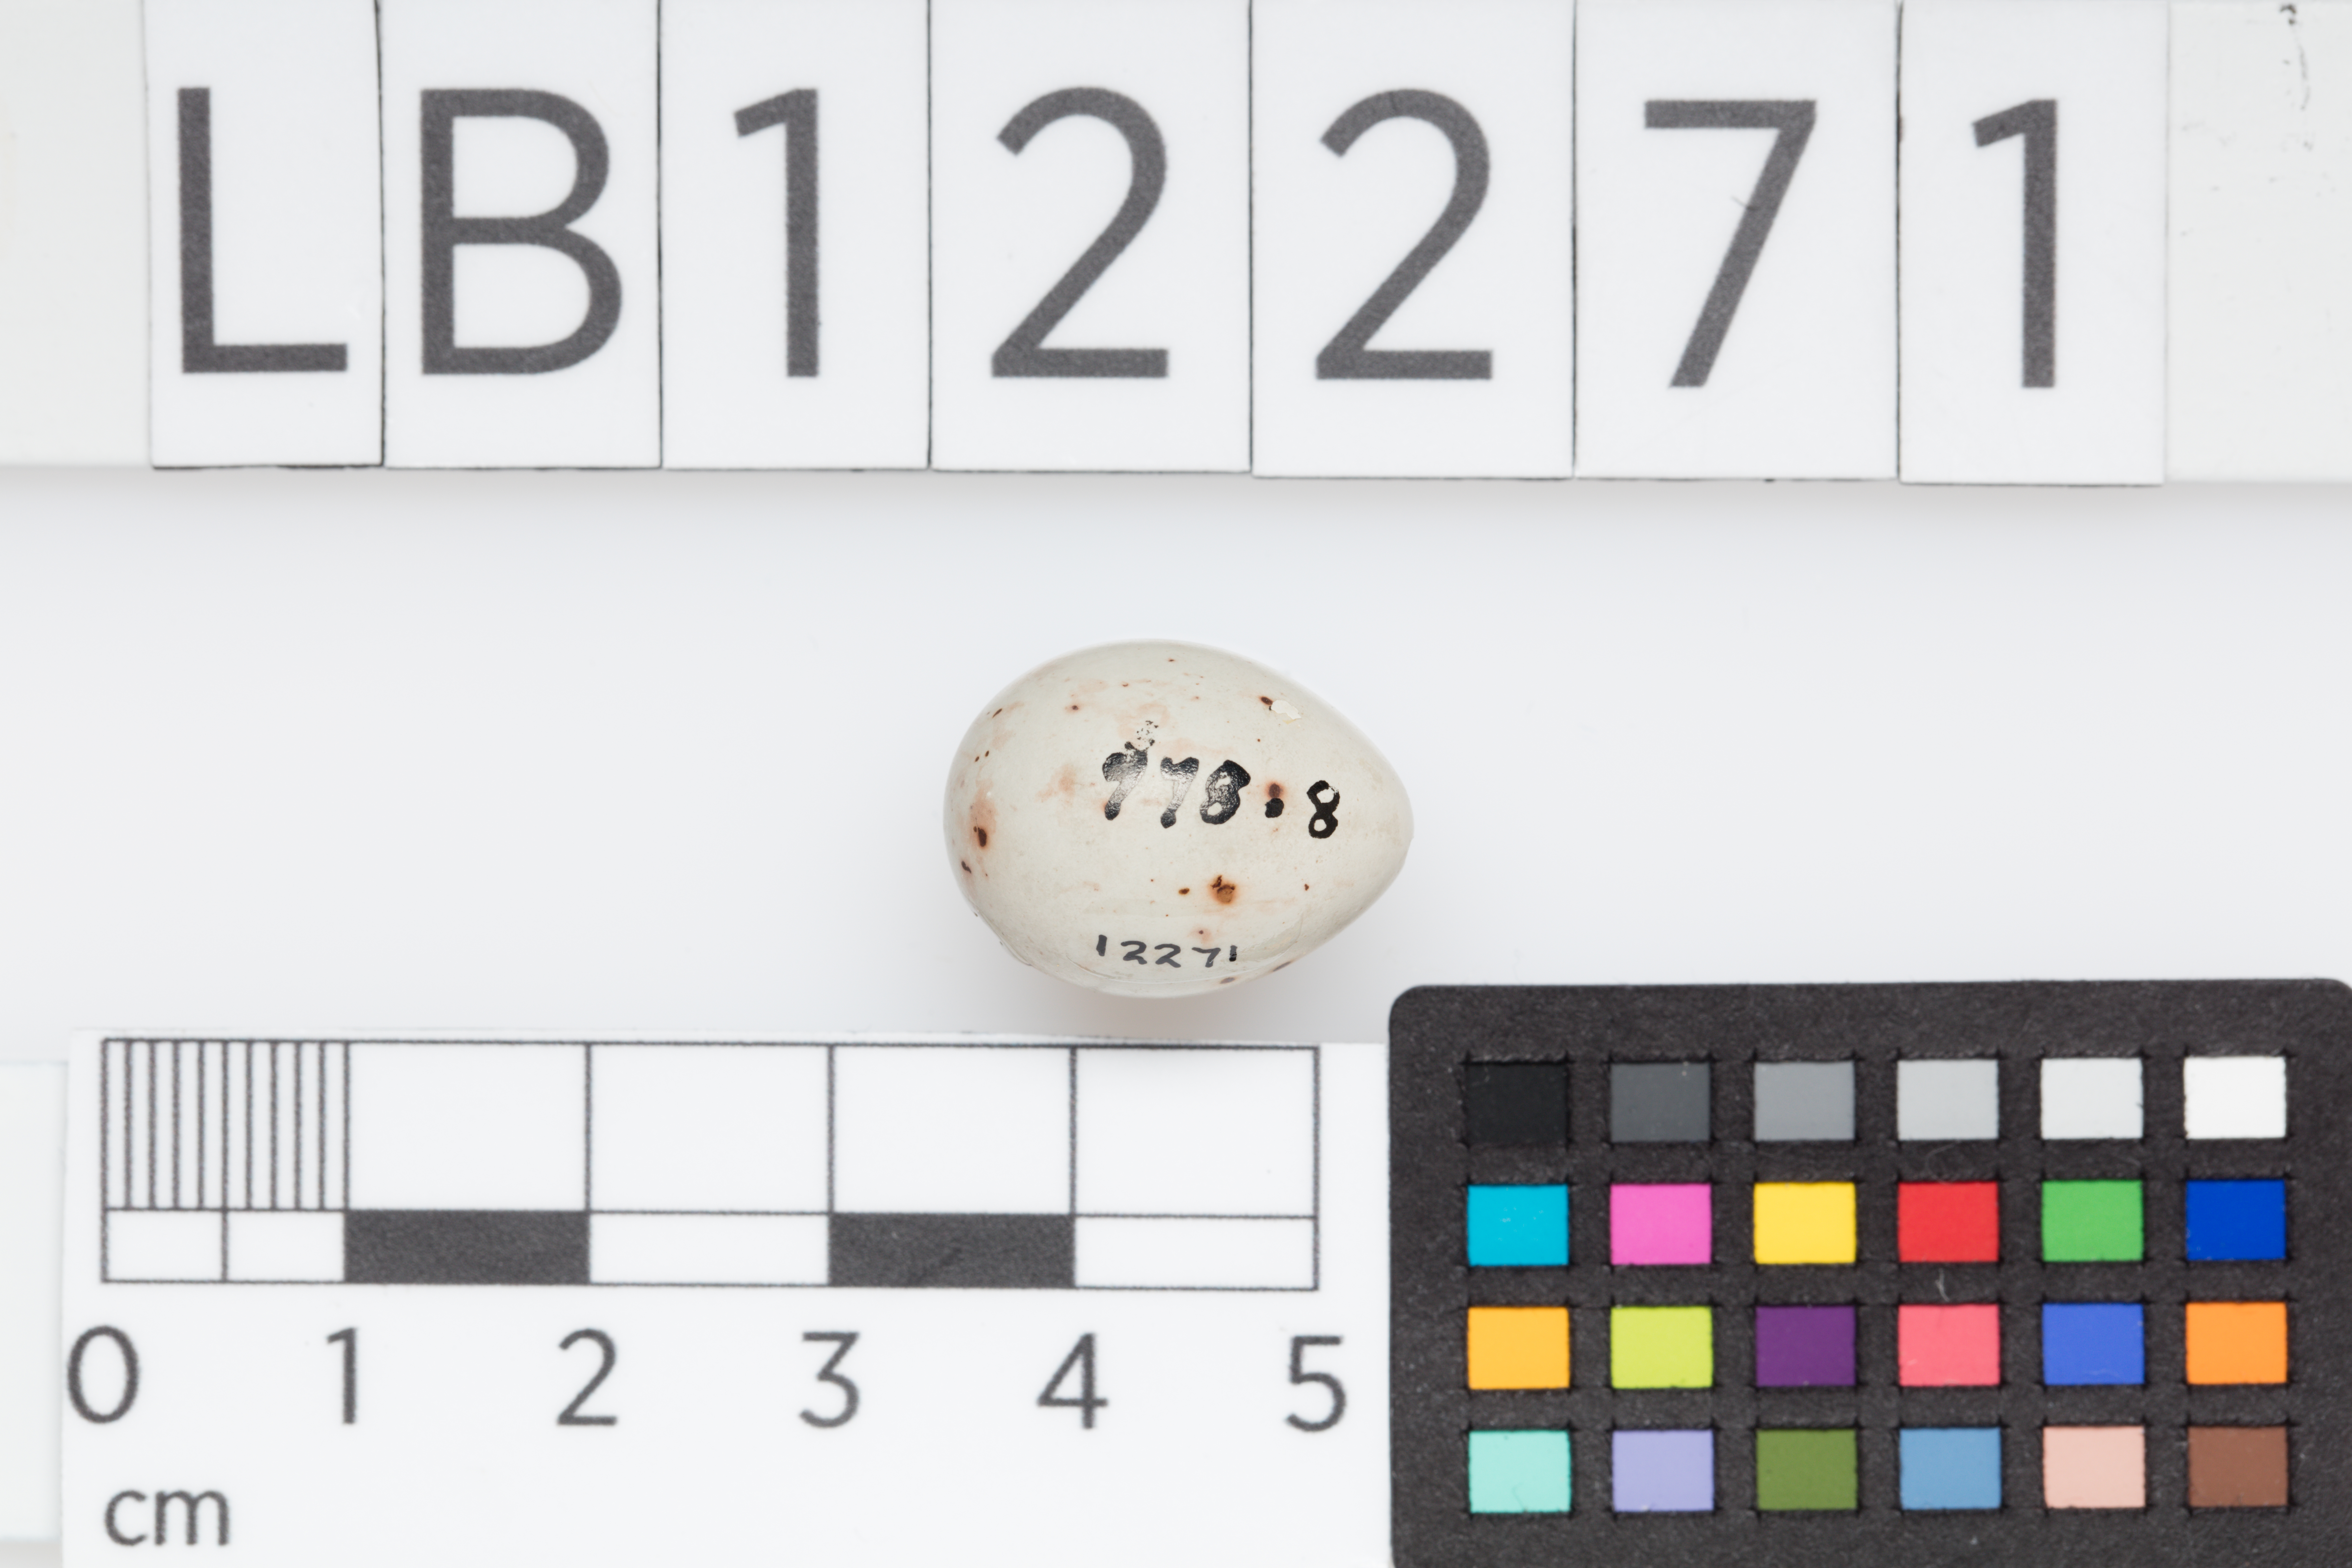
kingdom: Animalia
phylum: Chordata
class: Aves
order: Passeriformes
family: Fringillidae
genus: Fringilla
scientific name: Fringilla coelebs
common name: Common chaffinch
